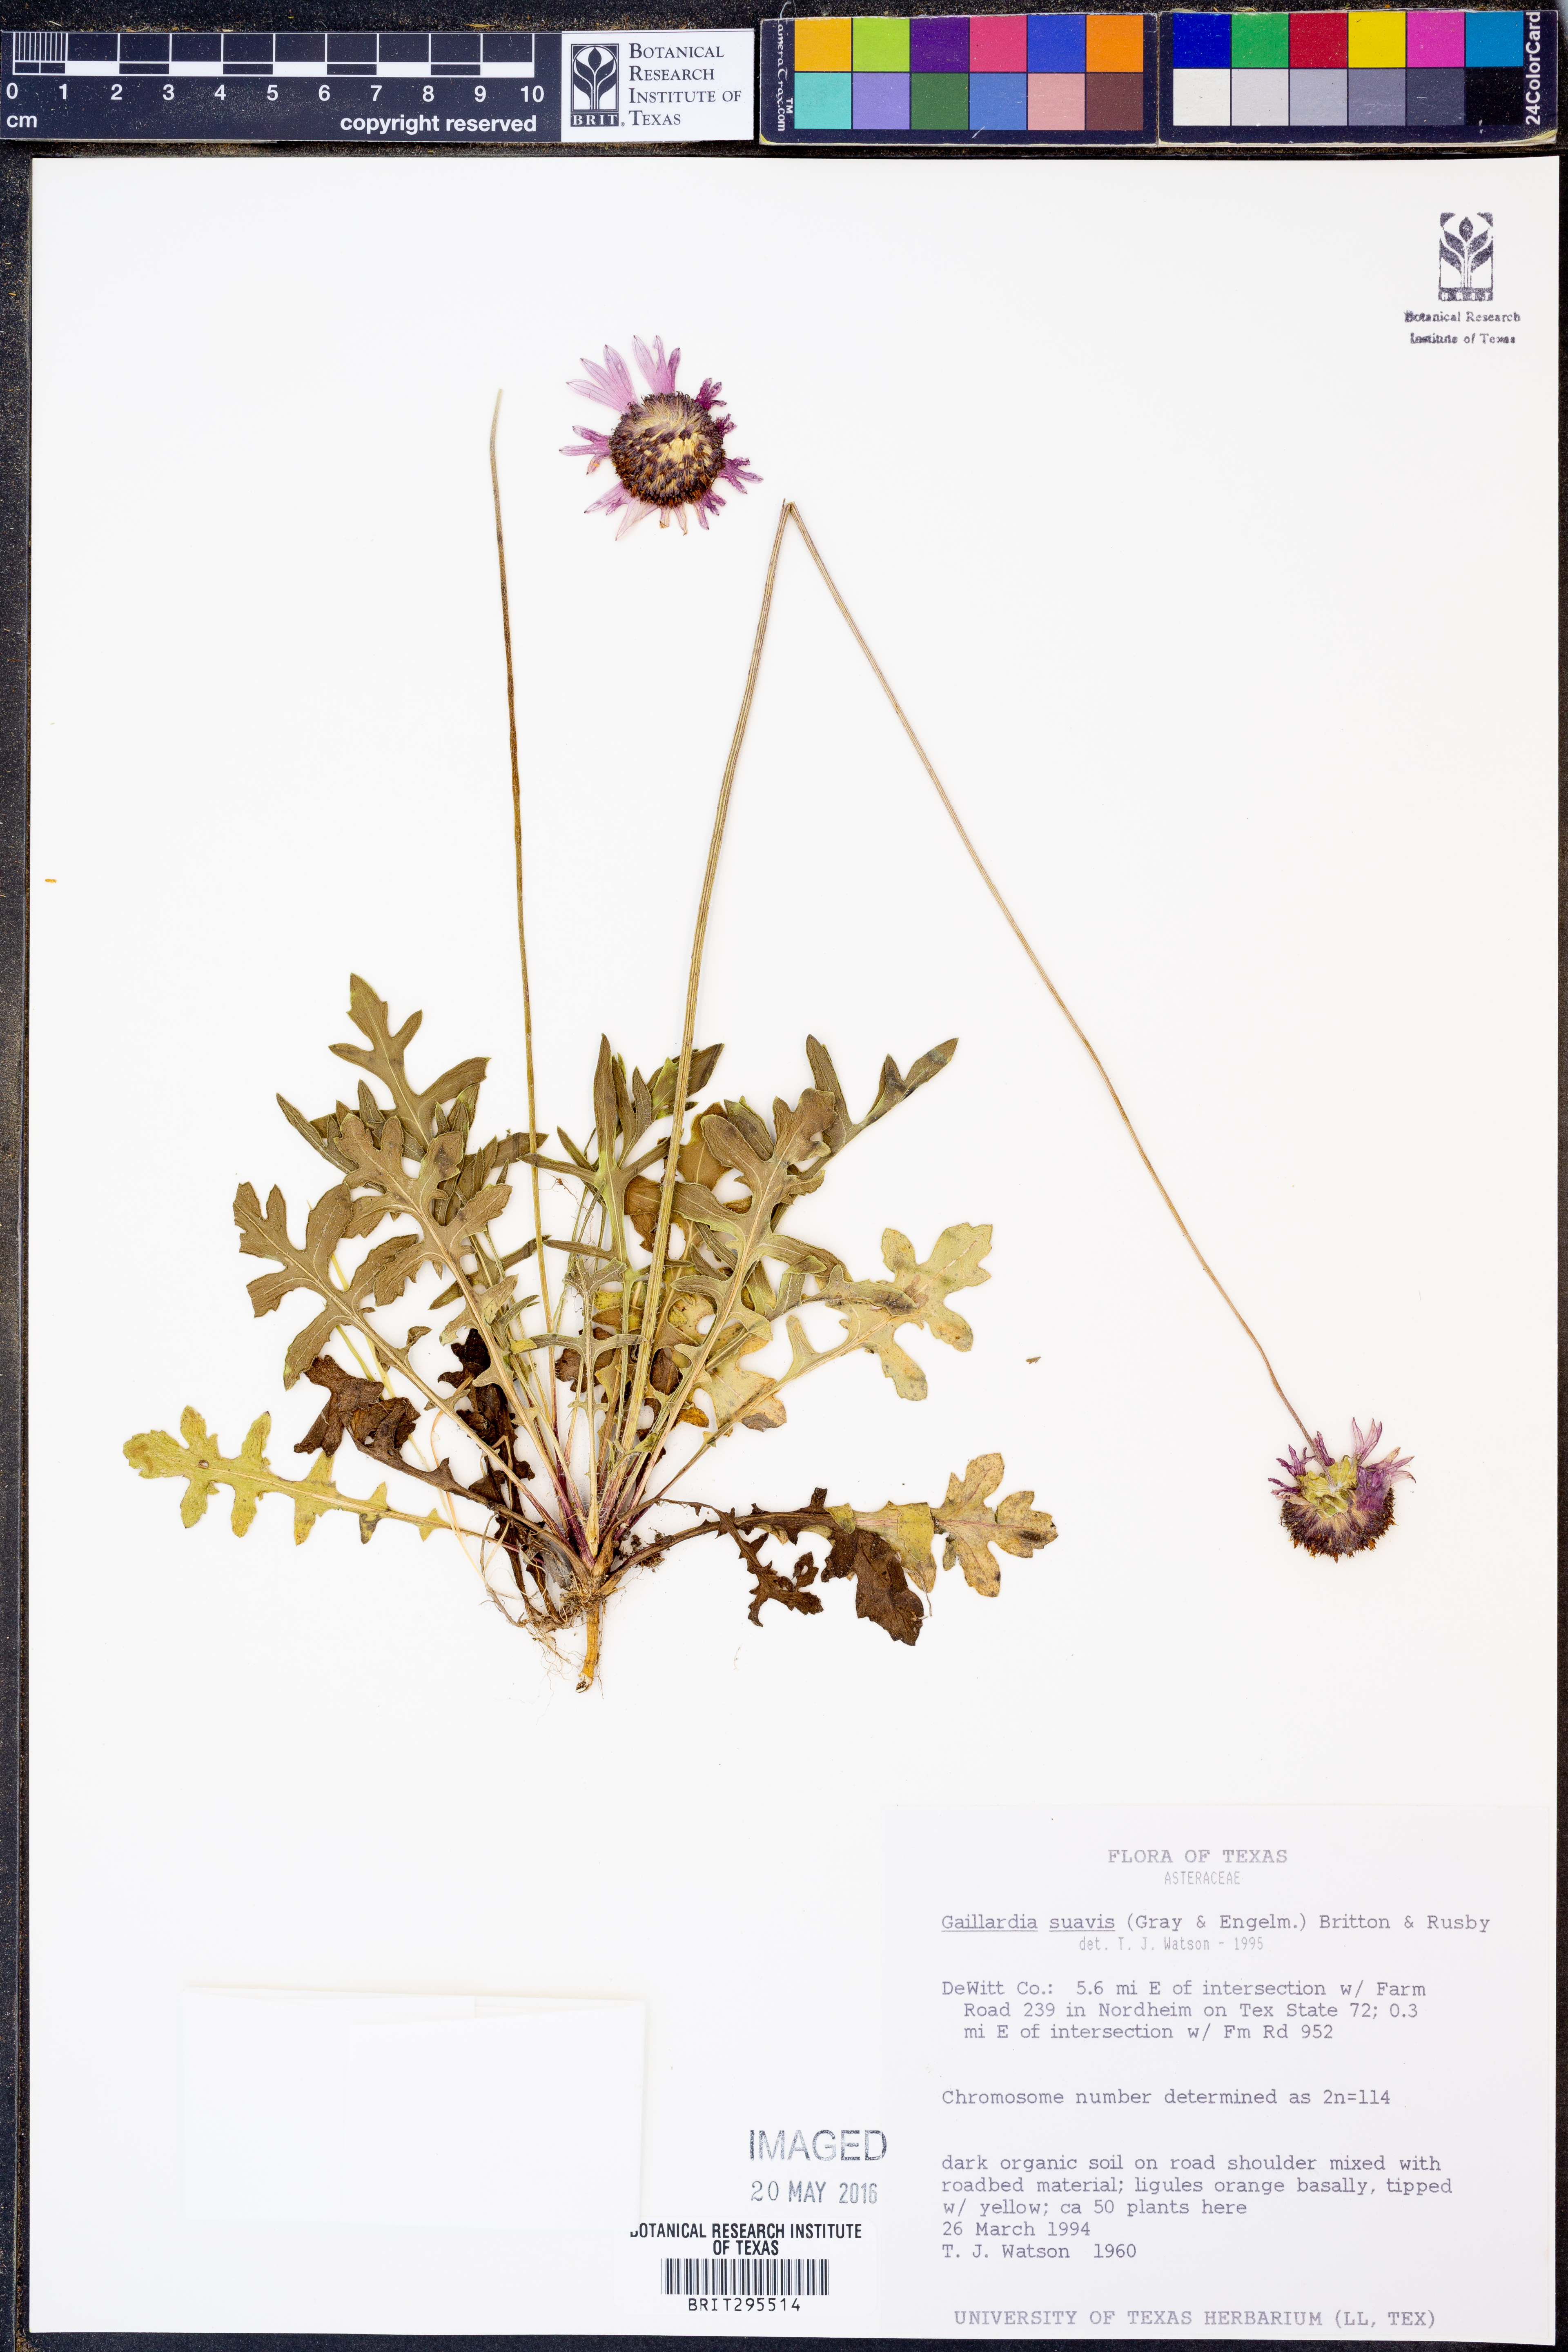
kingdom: Plantae
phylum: Tracheophyta
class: Magnoliopsida
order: Asterales
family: Asteraceae
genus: Gaillardia
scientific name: Gaillardia suavis
